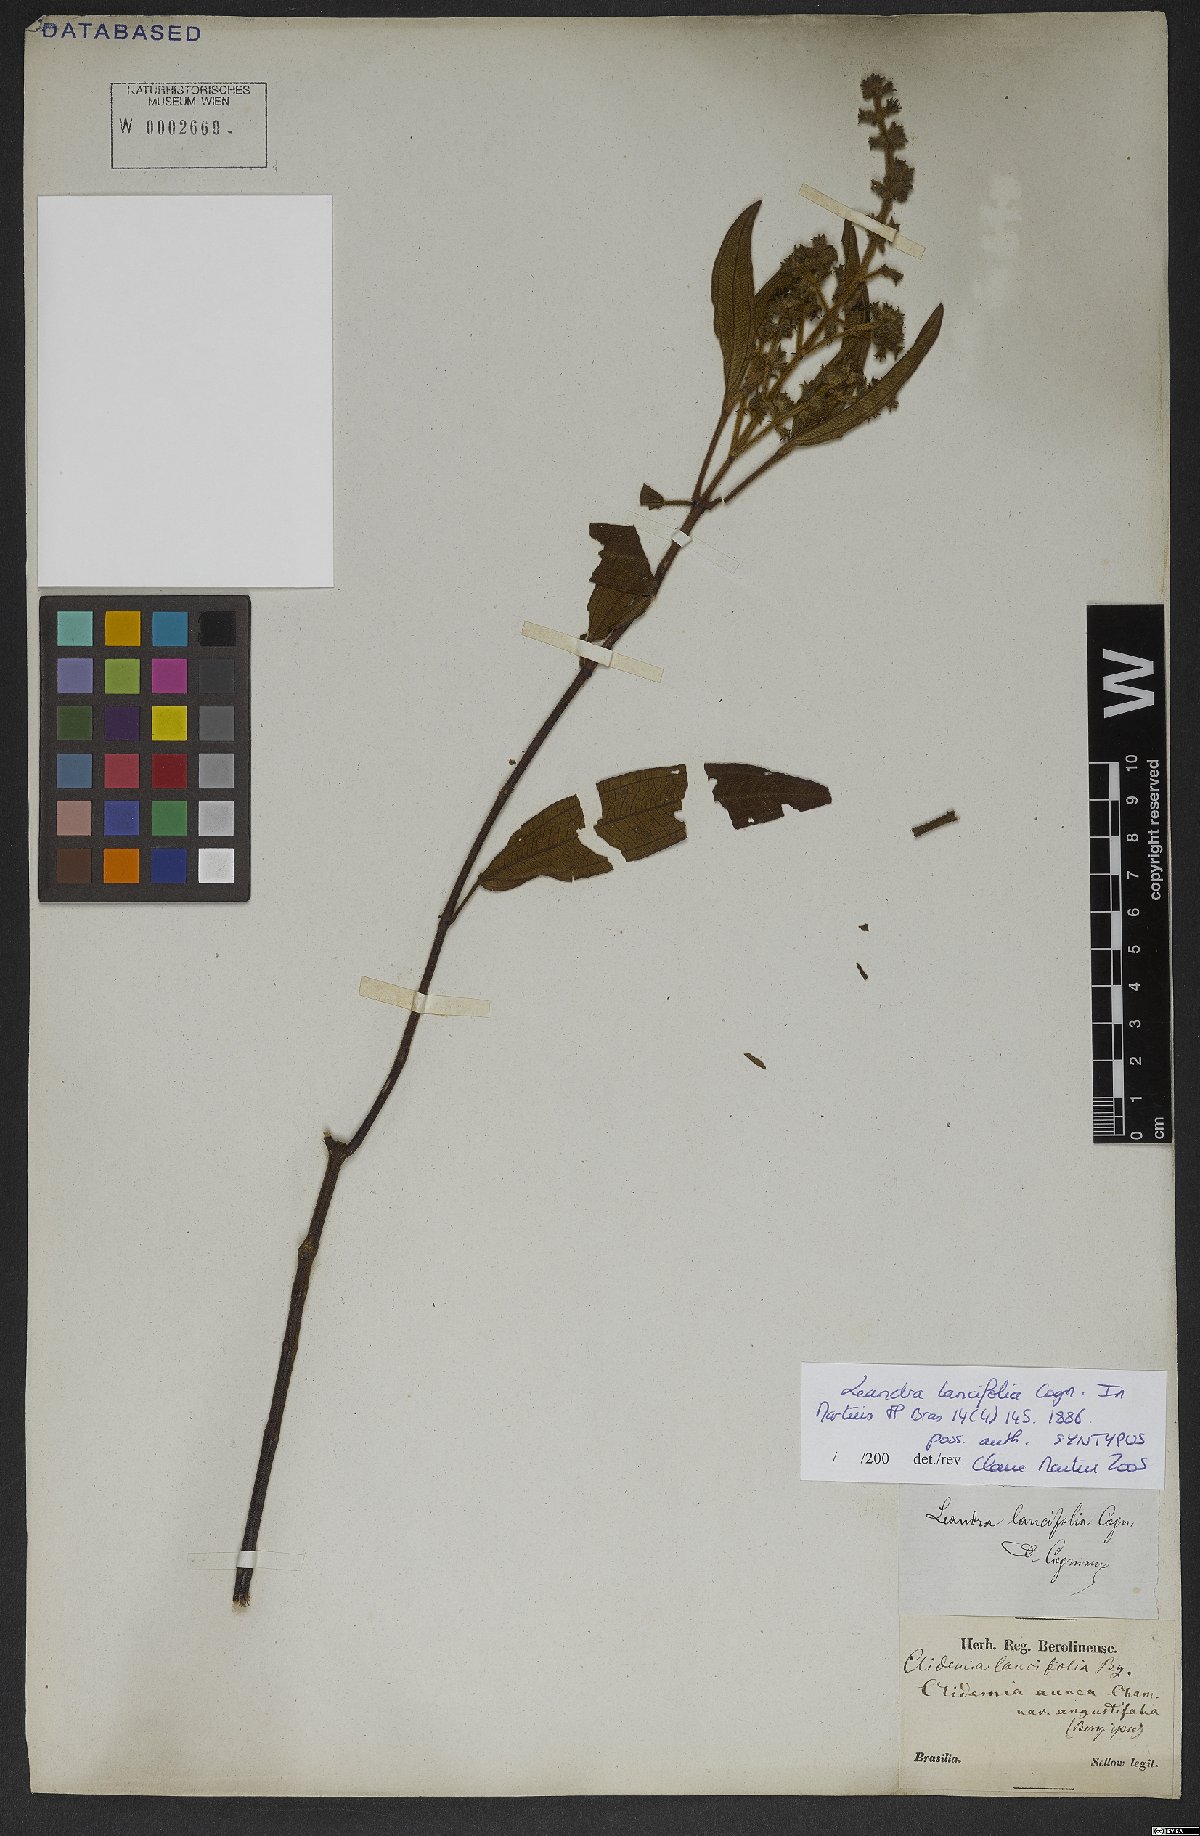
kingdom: Plantae
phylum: Tracheophyta
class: Magnoliopsida
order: Myrtales
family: Melastomataceae
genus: Miconia
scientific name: Miconia lealancifolia
